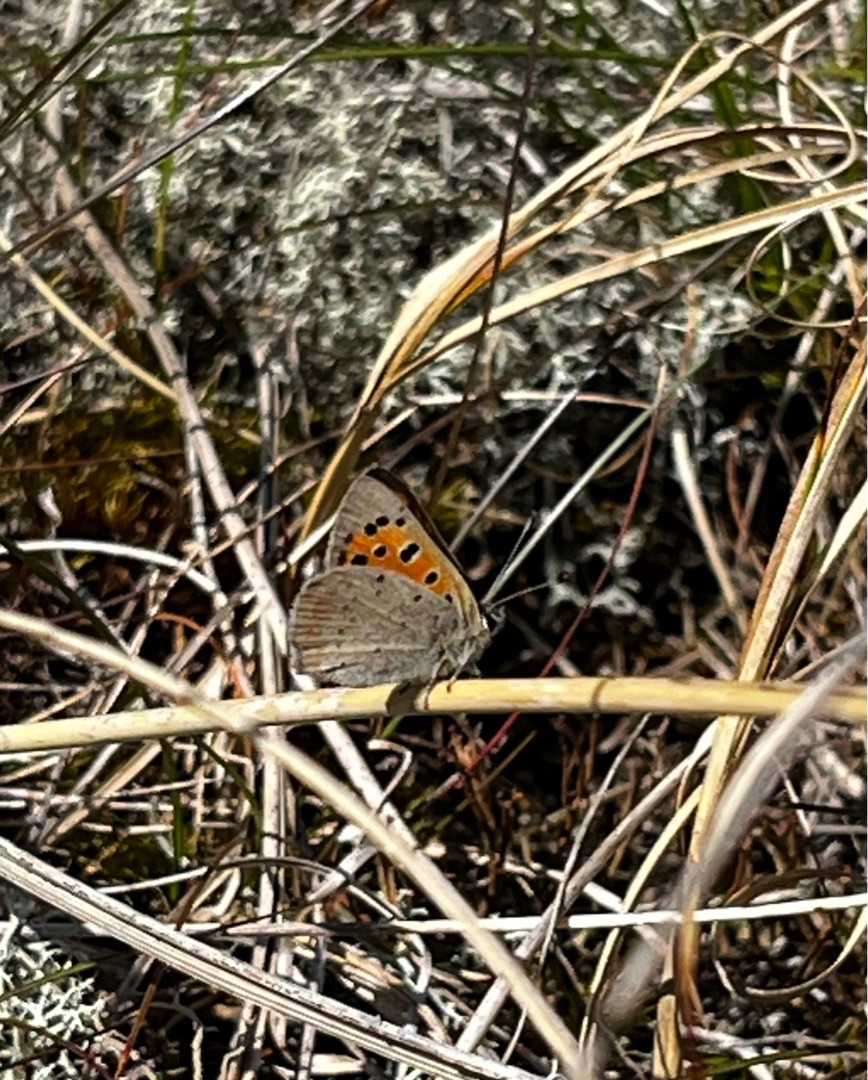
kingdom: Animalia
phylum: Arthropoda
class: Insecta
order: Lepidoptera
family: Lycaenidae
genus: Lycaena
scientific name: Lycaena phlaeas
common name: Lille ildfugl
